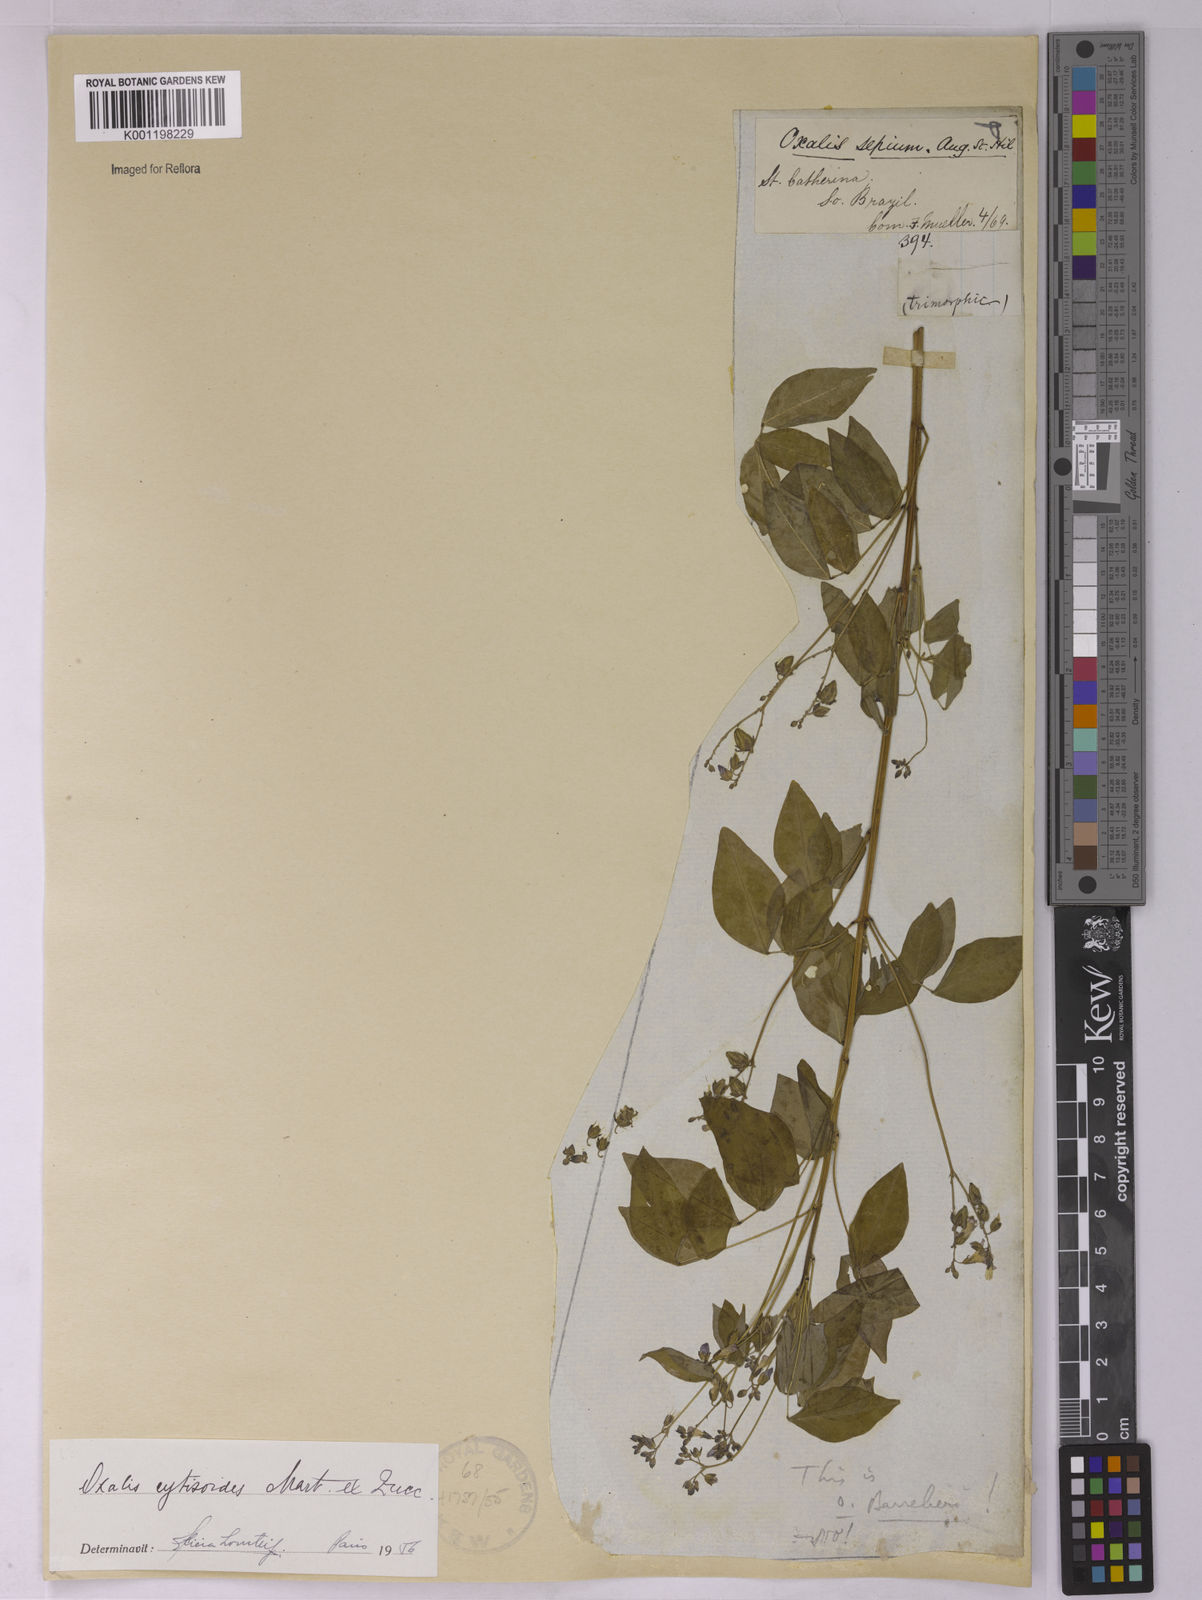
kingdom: Plantae
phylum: Tracheophyta
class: Magnoliopsida
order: Oxalidales
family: Oxalidaceae
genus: Oxalis
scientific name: Oxalis cytisoides
